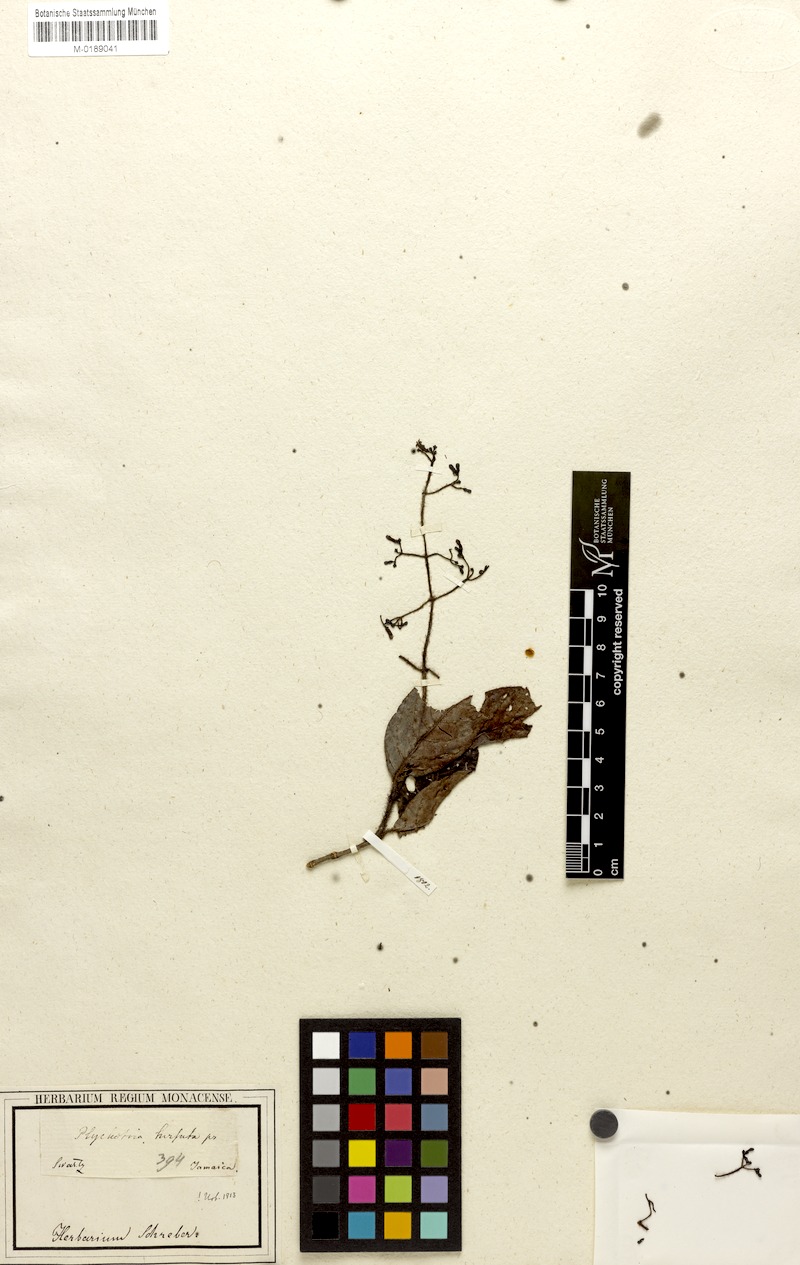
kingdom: Plantae
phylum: Tracheophyta
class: Magnoliopsida
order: Gentianales
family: Rubiaceae
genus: Psychotria
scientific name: Psychotria hirsuta
